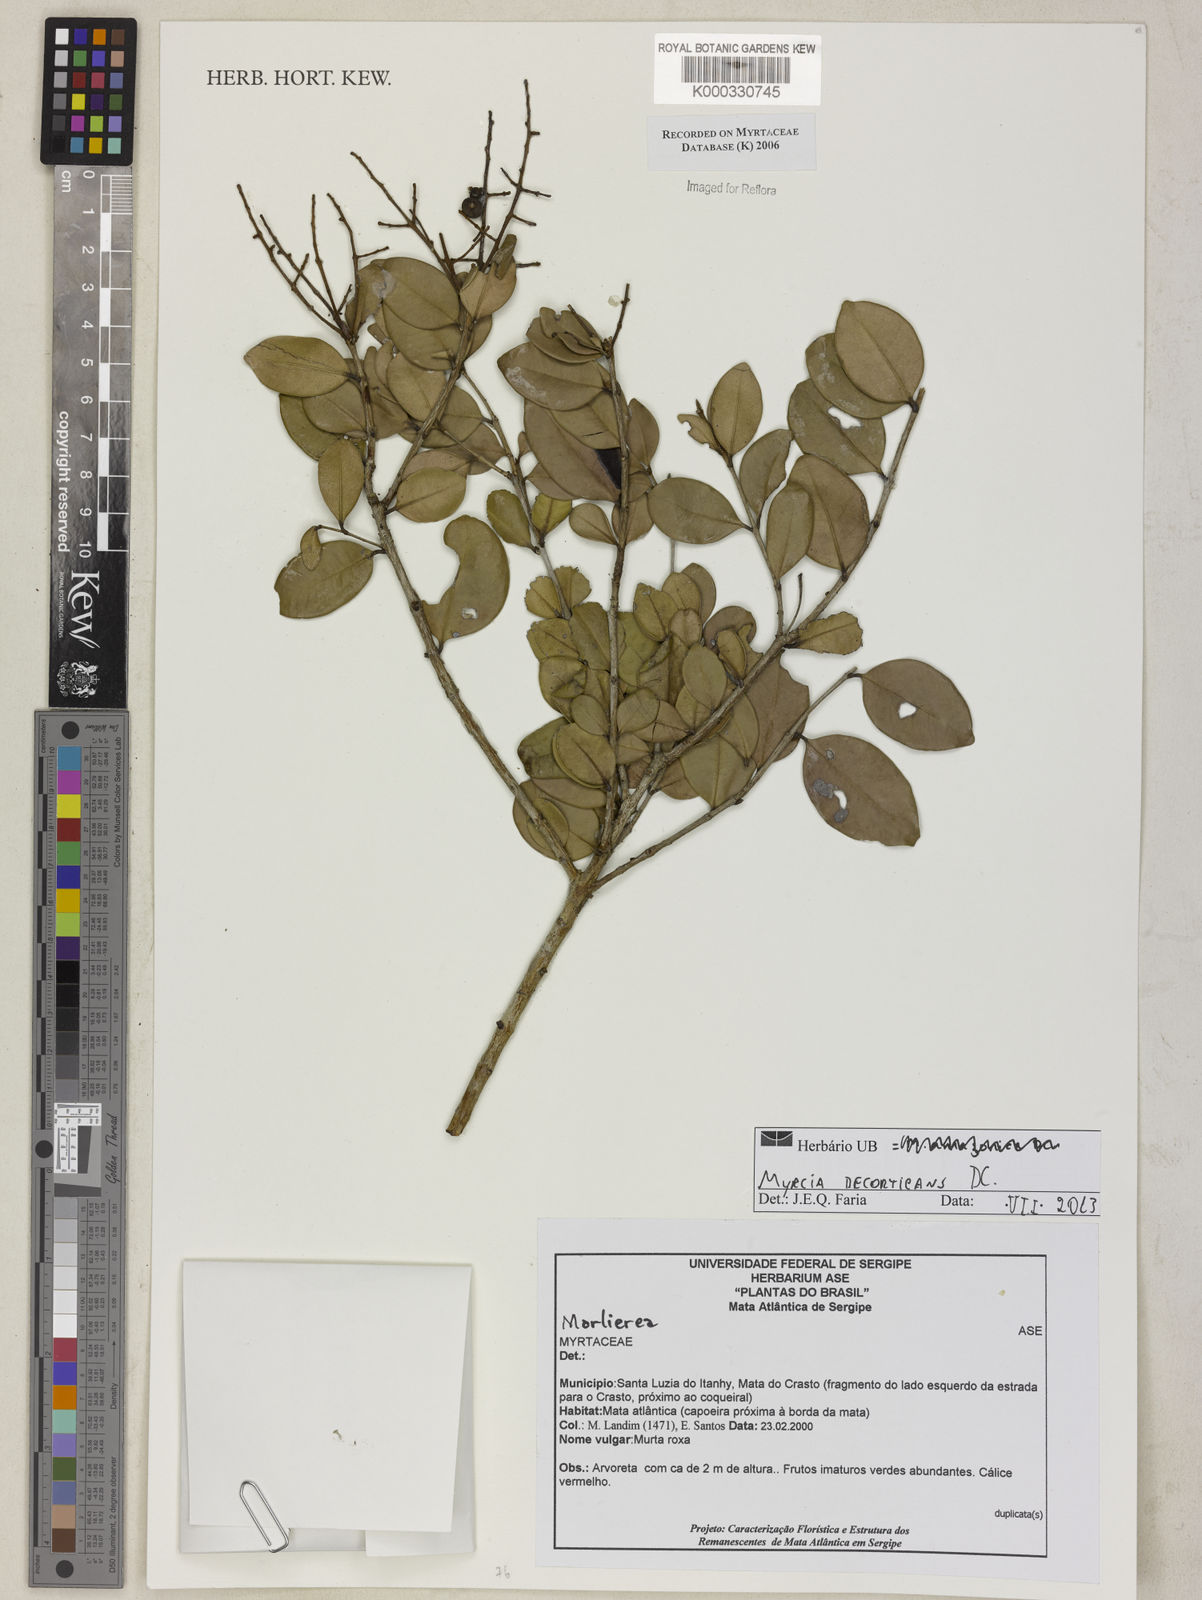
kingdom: Plantae
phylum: Tracheophyta
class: Magnoliopsida
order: Myrtales
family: Myrtaceae
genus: Marlierea
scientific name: Marlierea
